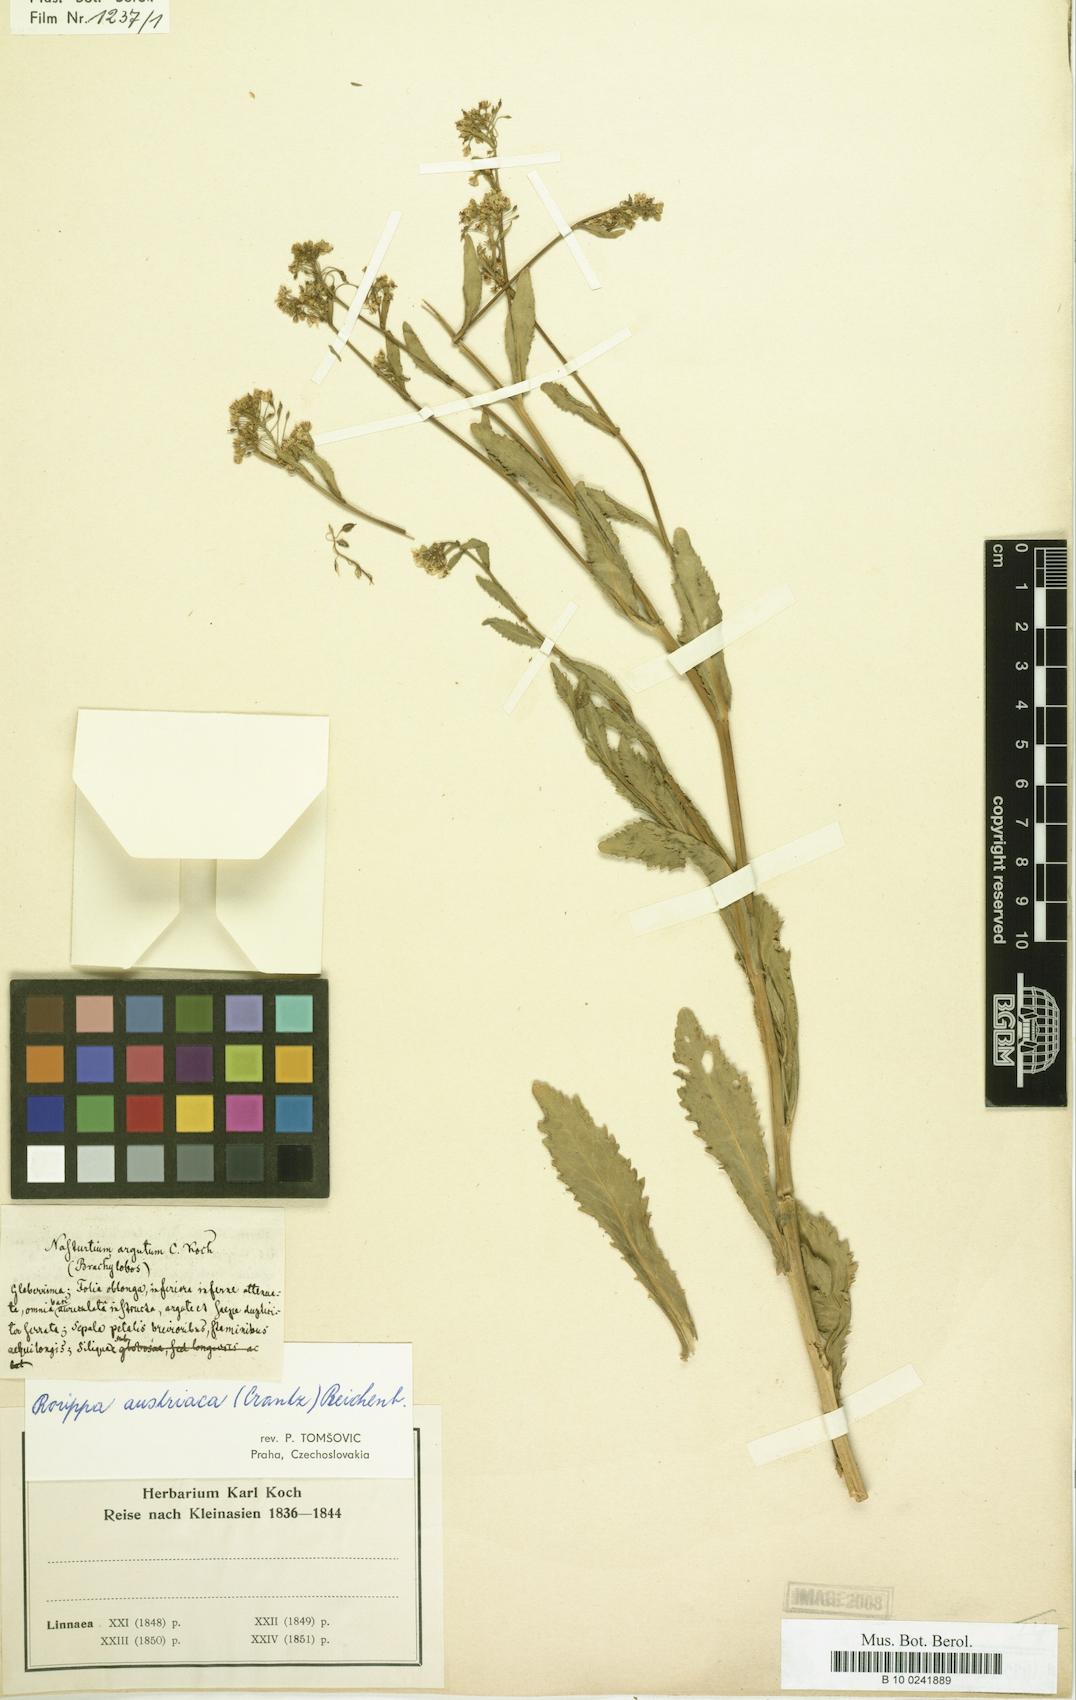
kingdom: Plantae
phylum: Tracheophyta
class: Magnoliopsida
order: Brassicales
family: Brassicaceae
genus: Nasturtium
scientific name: Nasturtium
